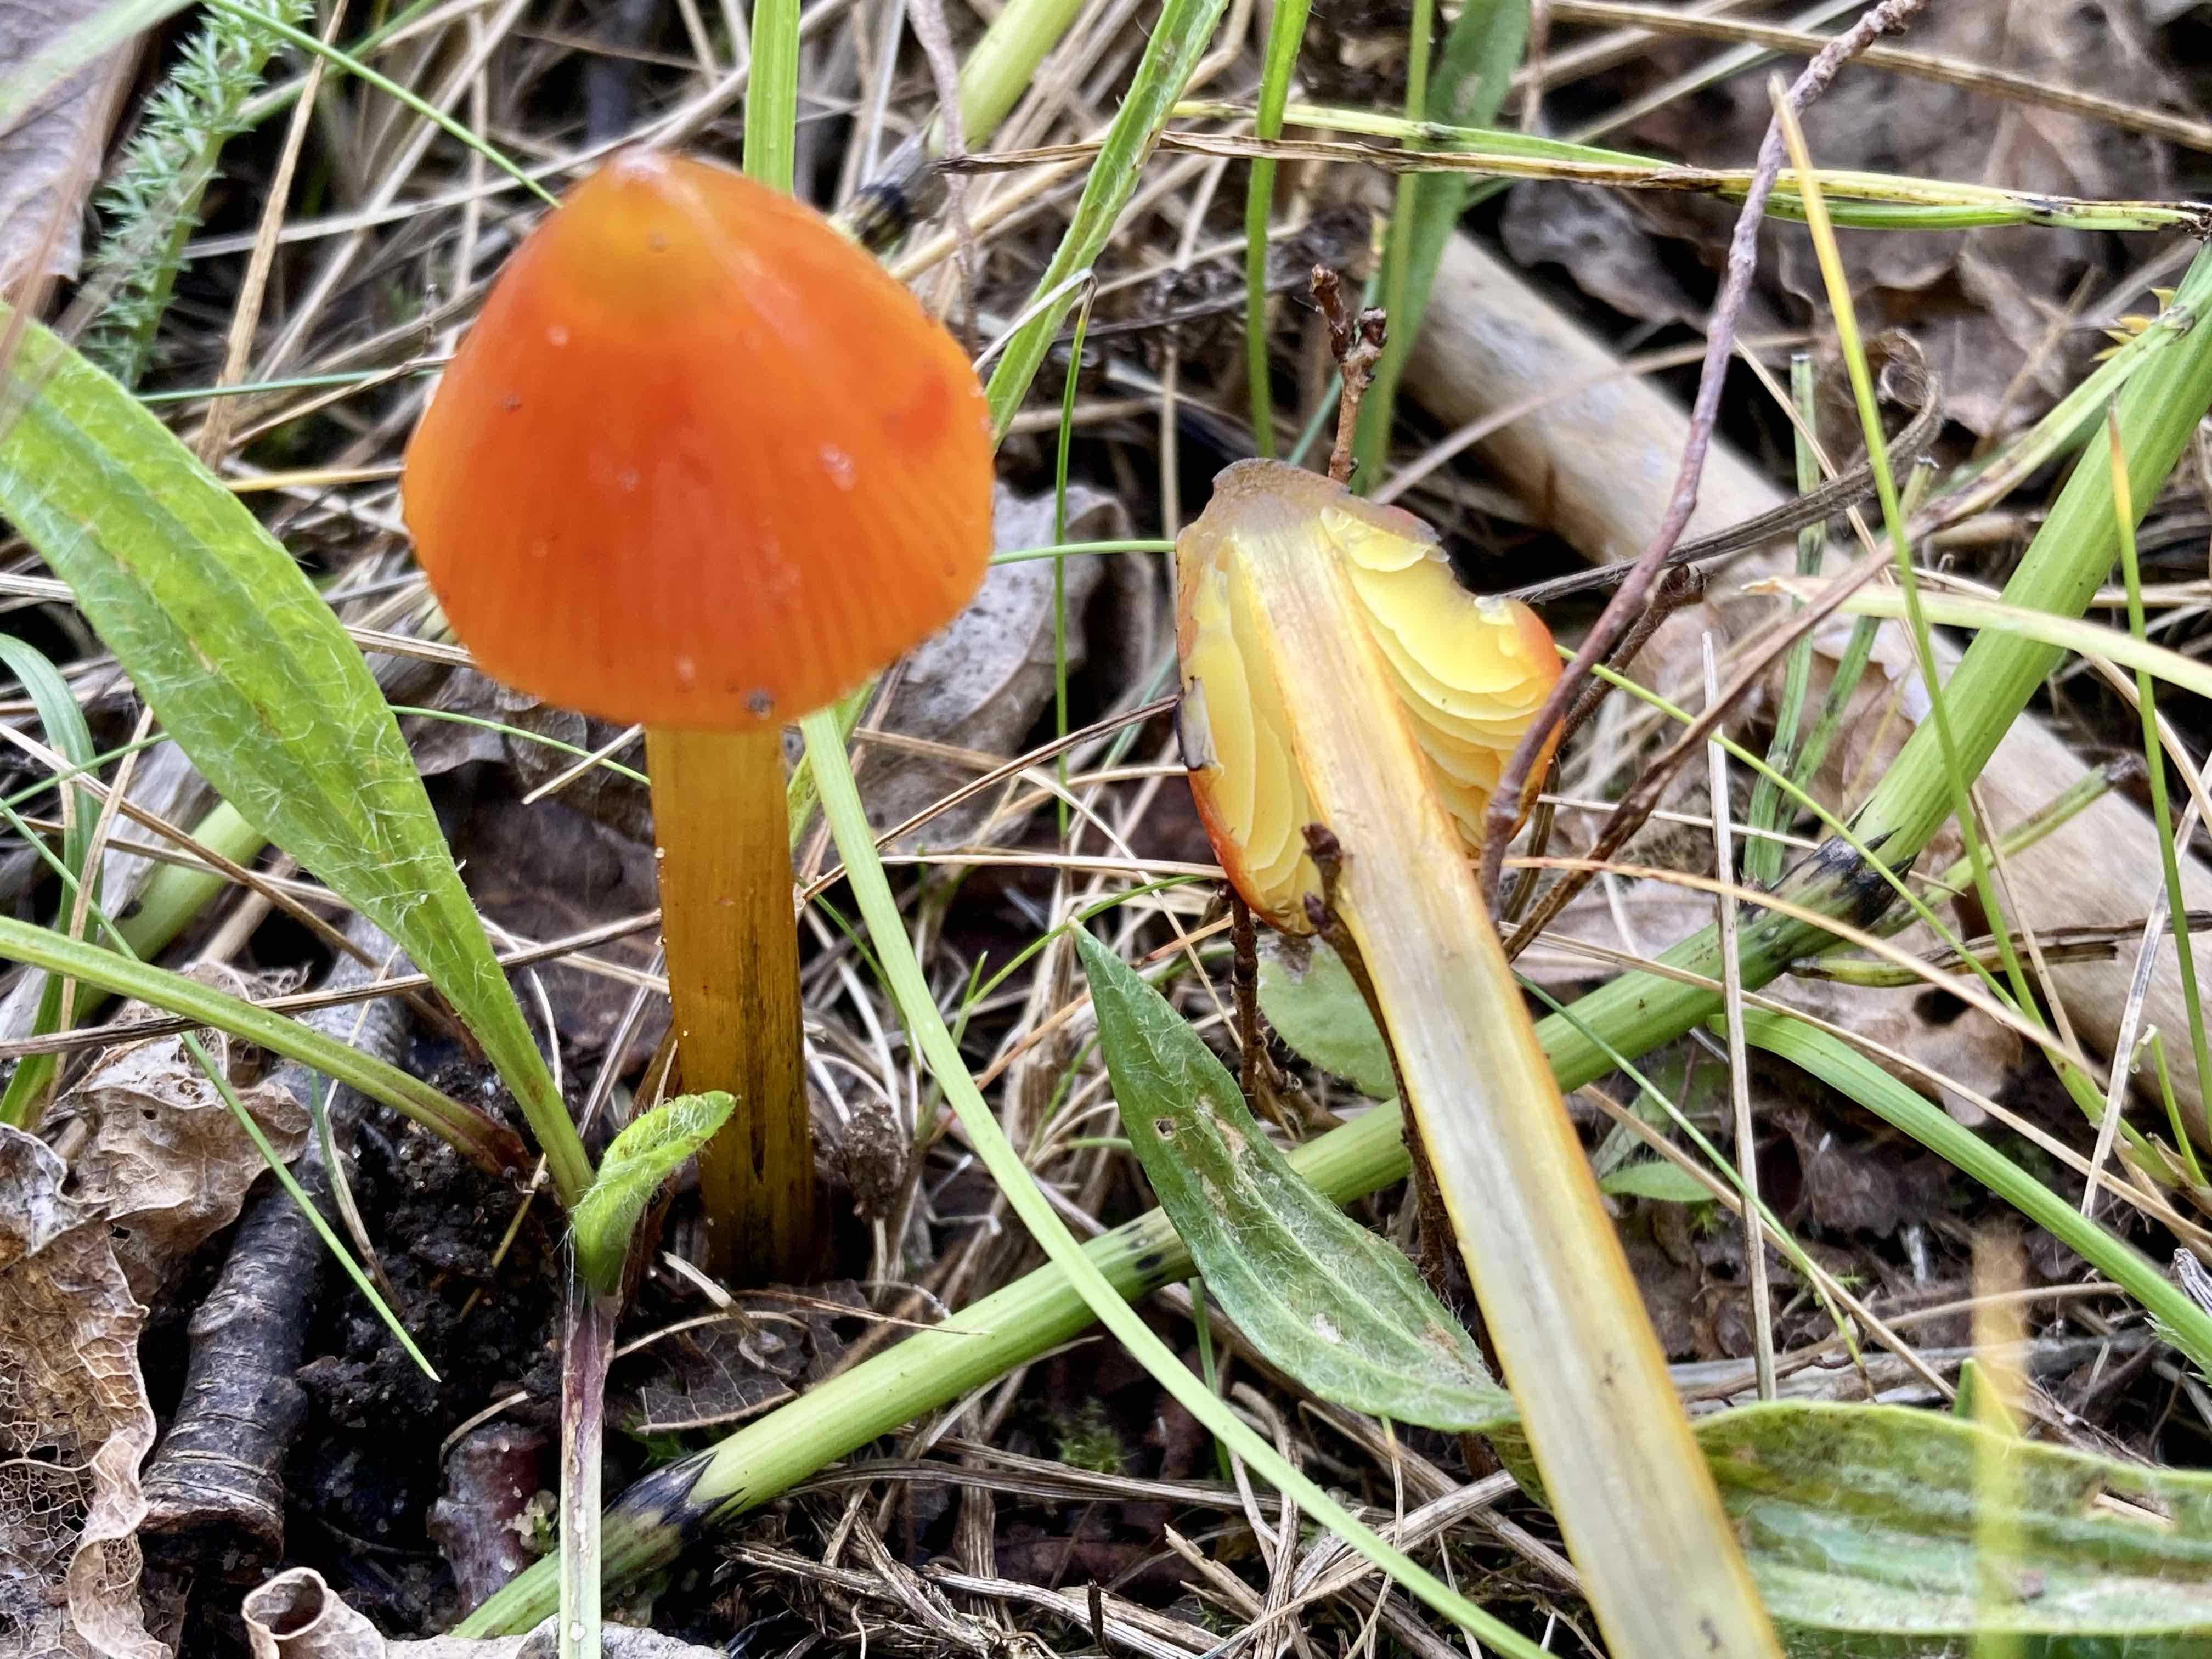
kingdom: Fungi
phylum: Basidiomycota
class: Agaricomycetes
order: Agaricales
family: Hygrophoraceae
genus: Hygrocybe
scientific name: Hygrocybe conica
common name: kegle-vokshat
